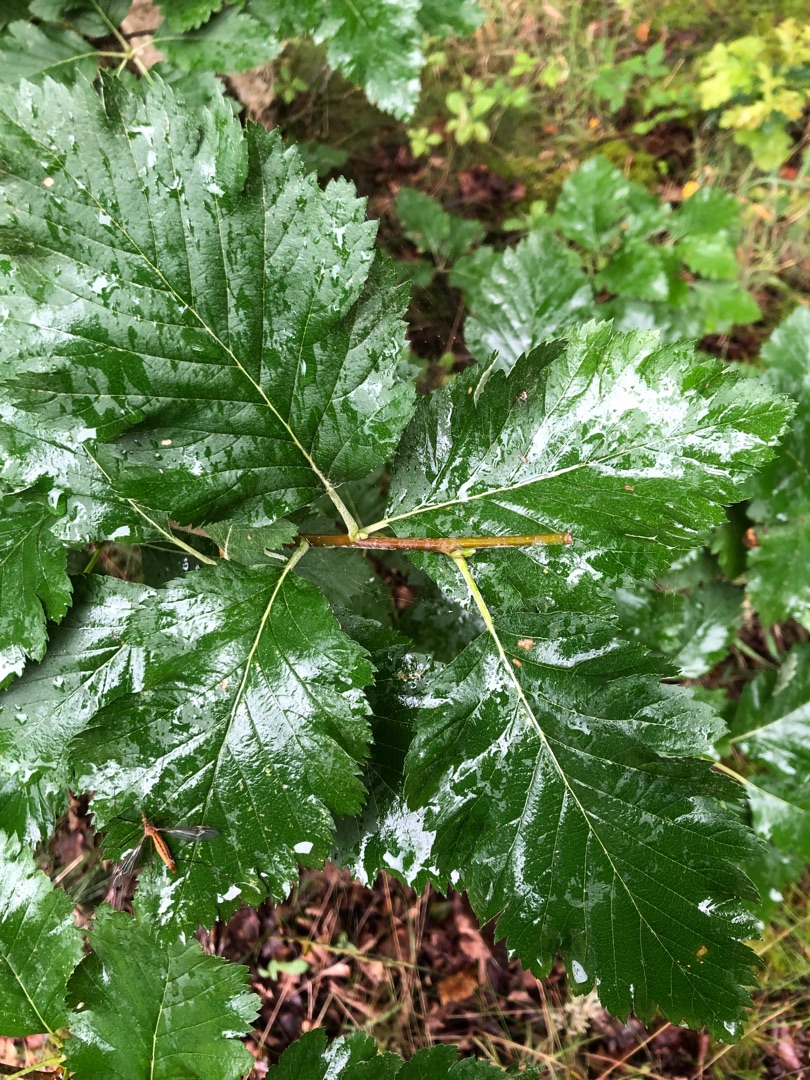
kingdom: Plantae
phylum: Tracheophyta
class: Magnoliopsida
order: Rosales
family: Rosaceae
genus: Hedlundia
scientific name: Hedlundia austriaca
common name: Østrigsk røn
